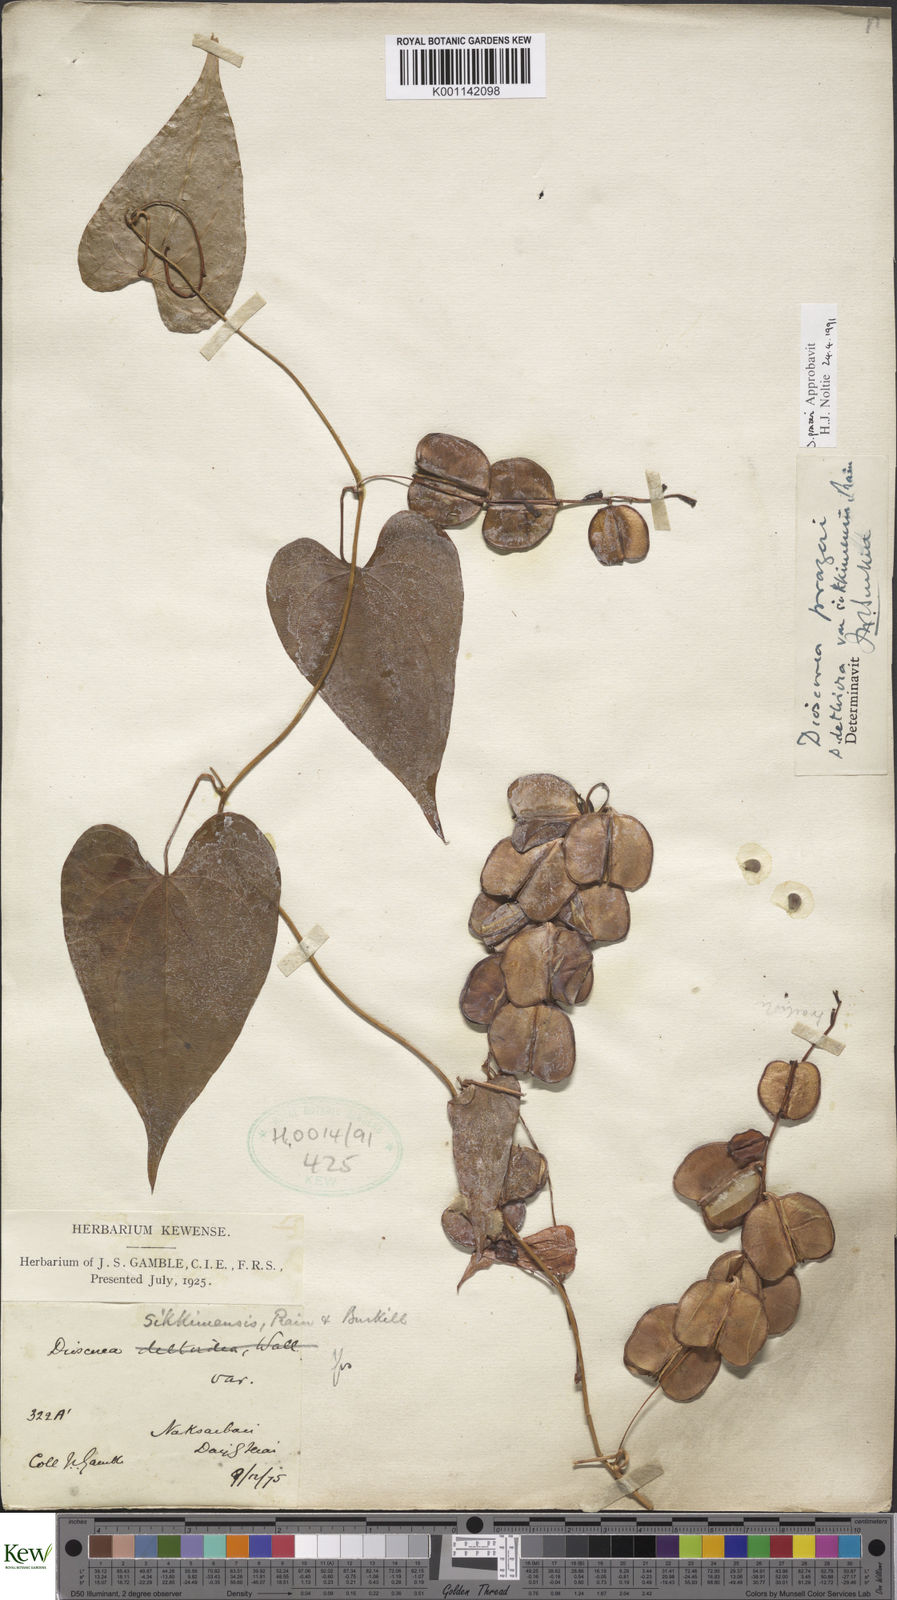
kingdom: Plantae
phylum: Tracheophyta
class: Liliopsida
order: Dioscoreales
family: Dioscoreaceae
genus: Dioscorea
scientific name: Dioscorea prazeri
